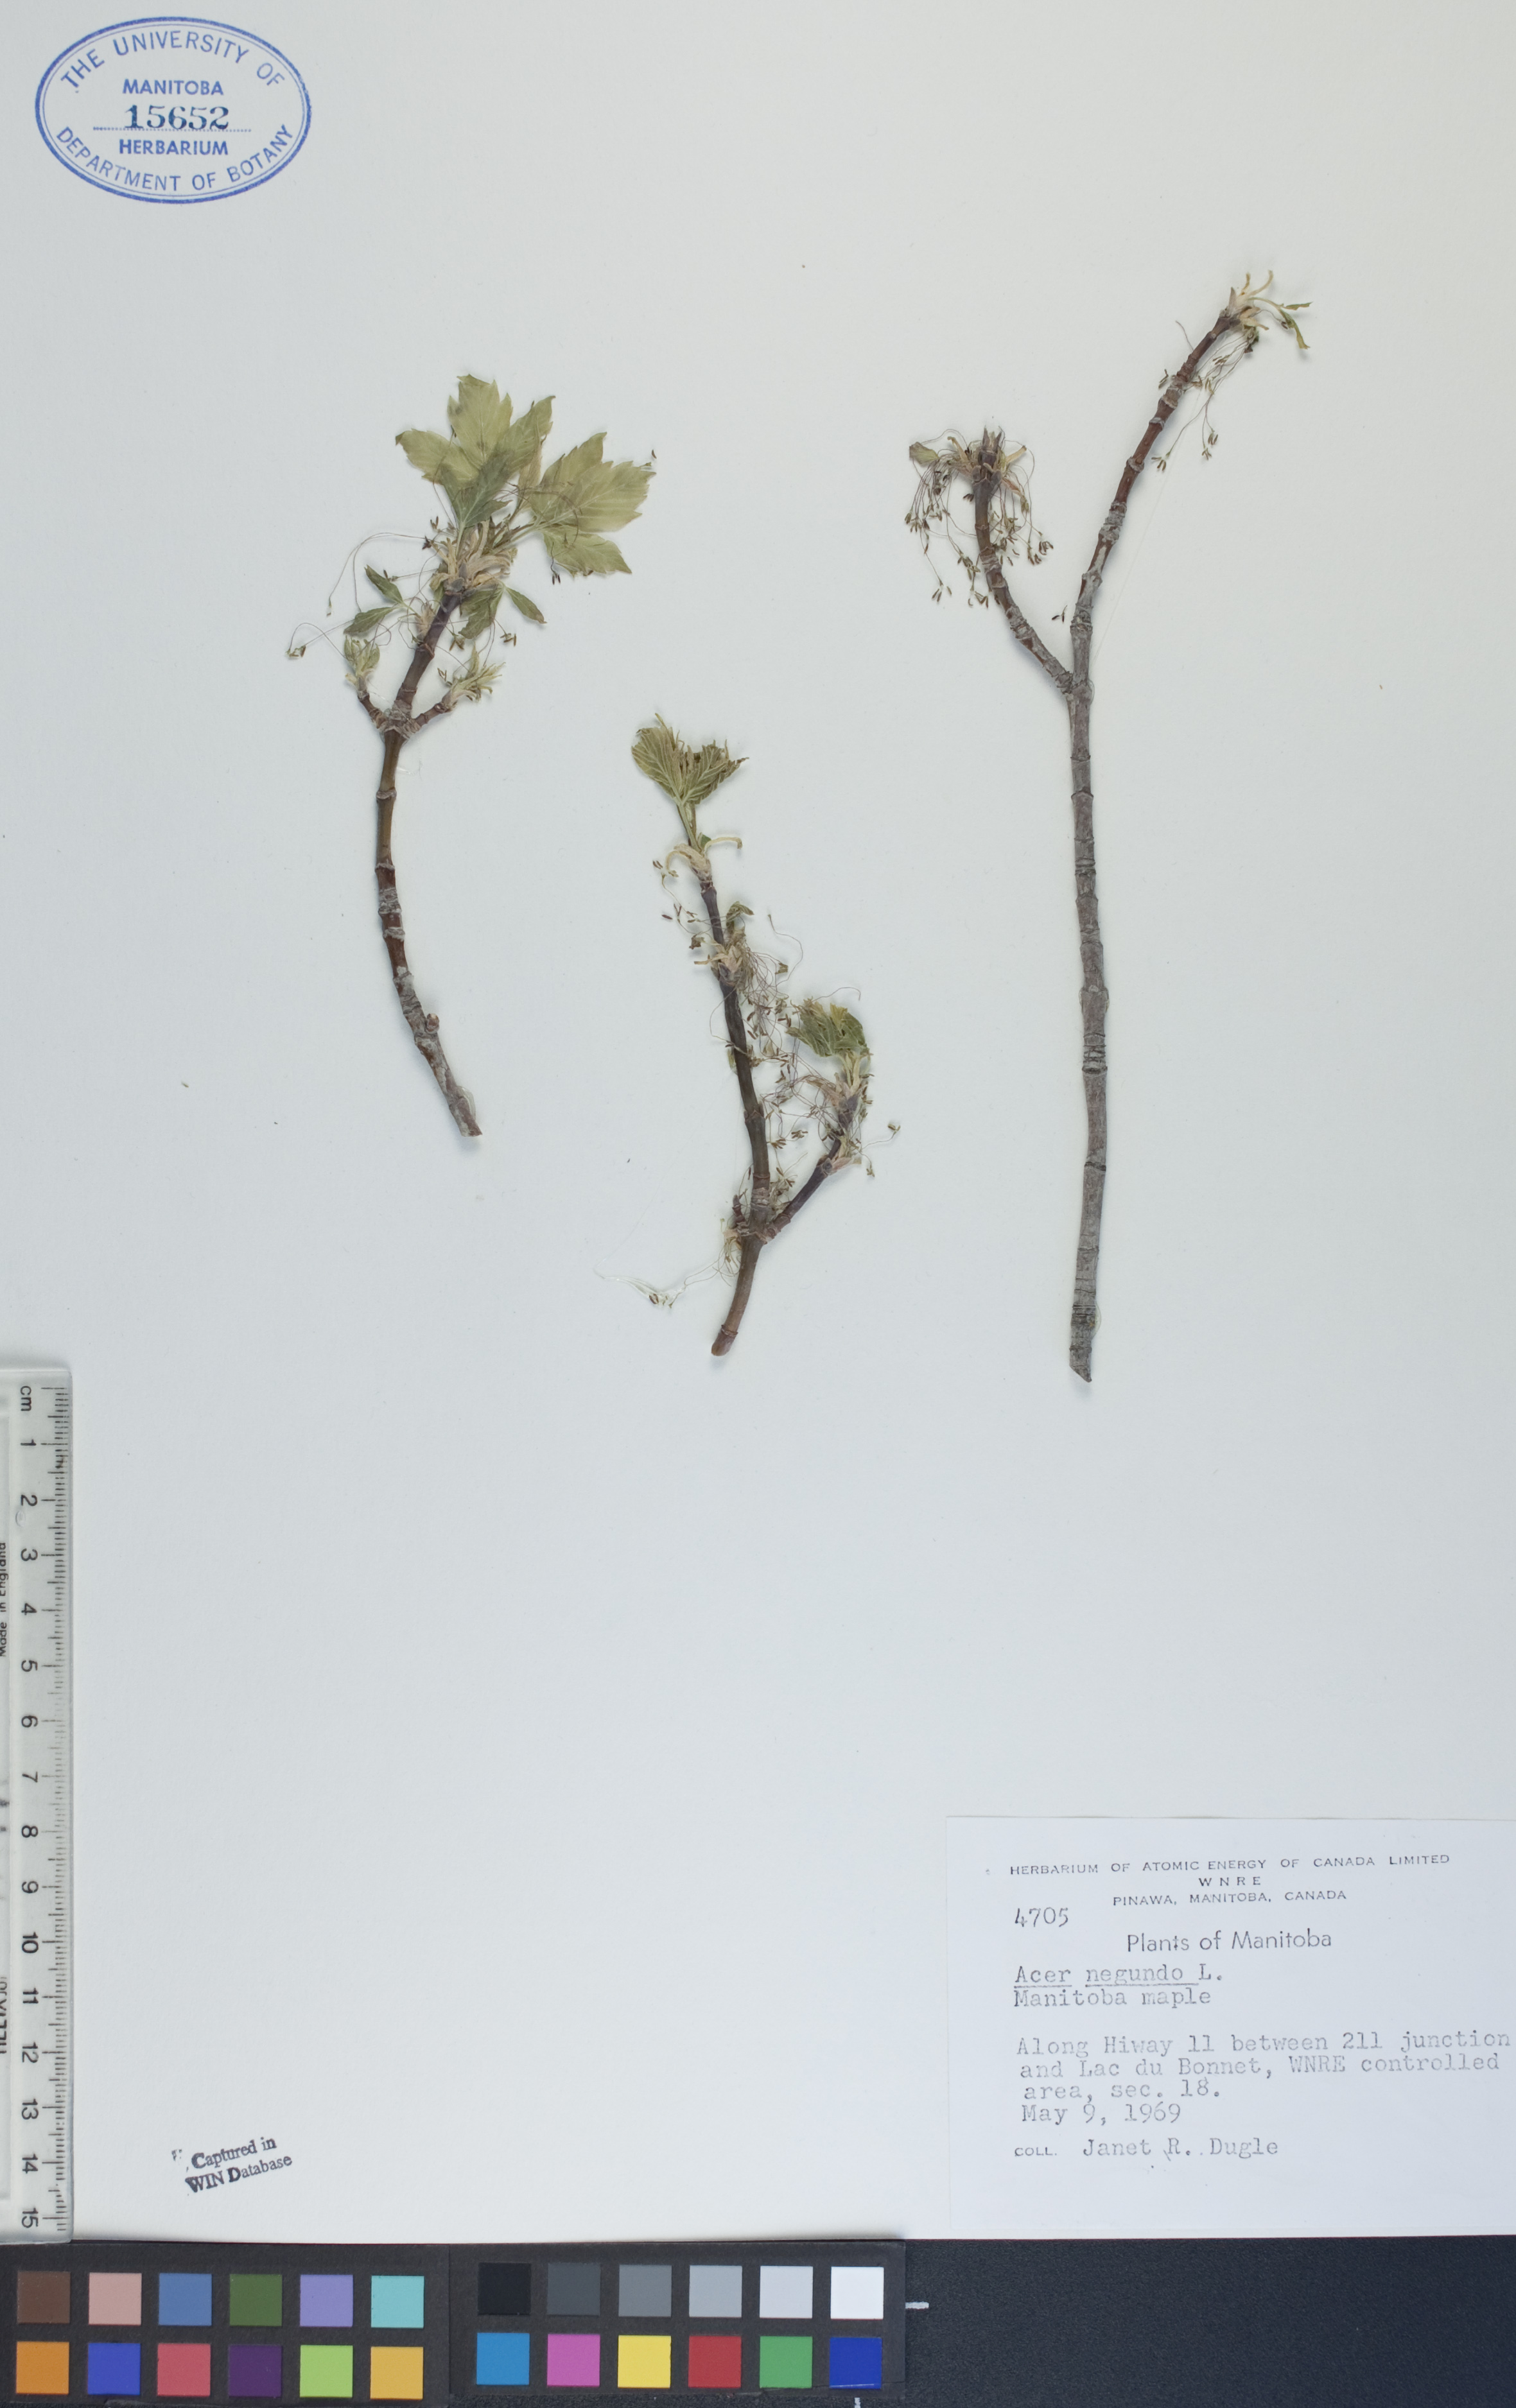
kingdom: Plantae
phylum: Tracheophyta
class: Magnoliopsida
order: Sapindales
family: Sapindaceae
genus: Acer
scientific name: Acer negundo
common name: Ashleaf maple
